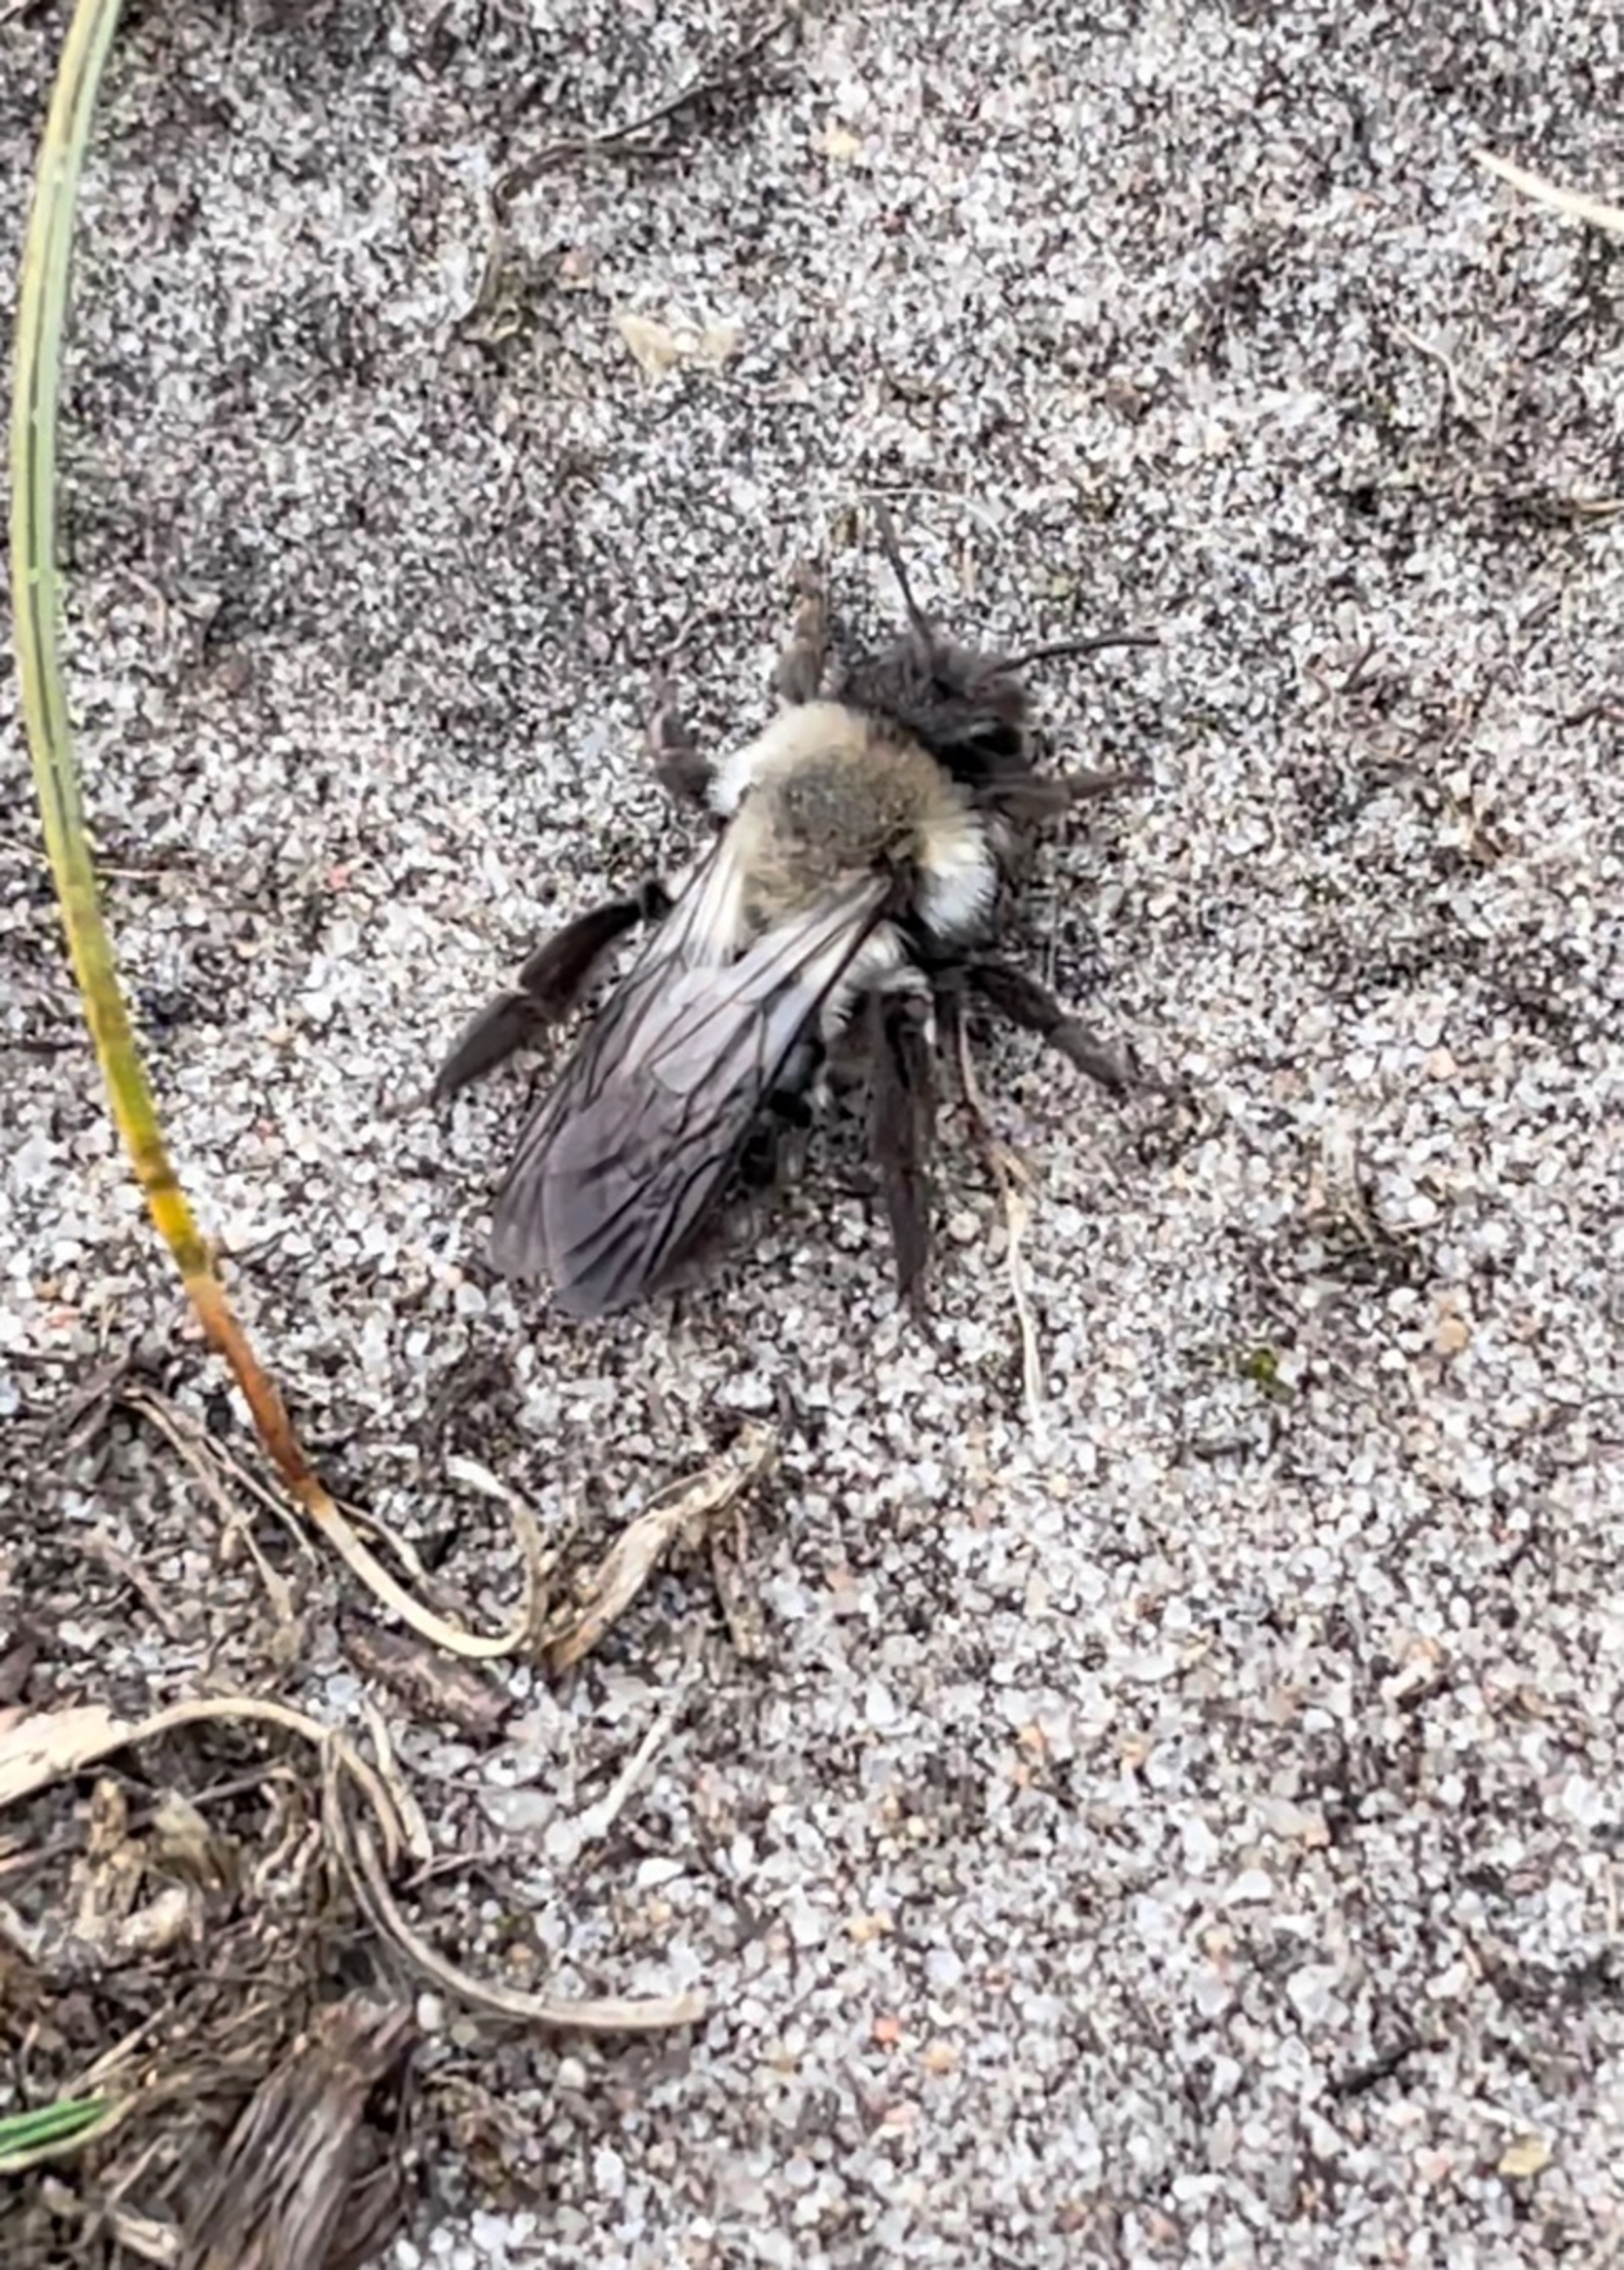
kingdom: Animalia
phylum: Arthropoda
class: Insecta
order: Hymenoptera
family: Andrenidae
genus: Andrena
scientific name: Andrena vaga
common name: Hvidbrystet jordbi
